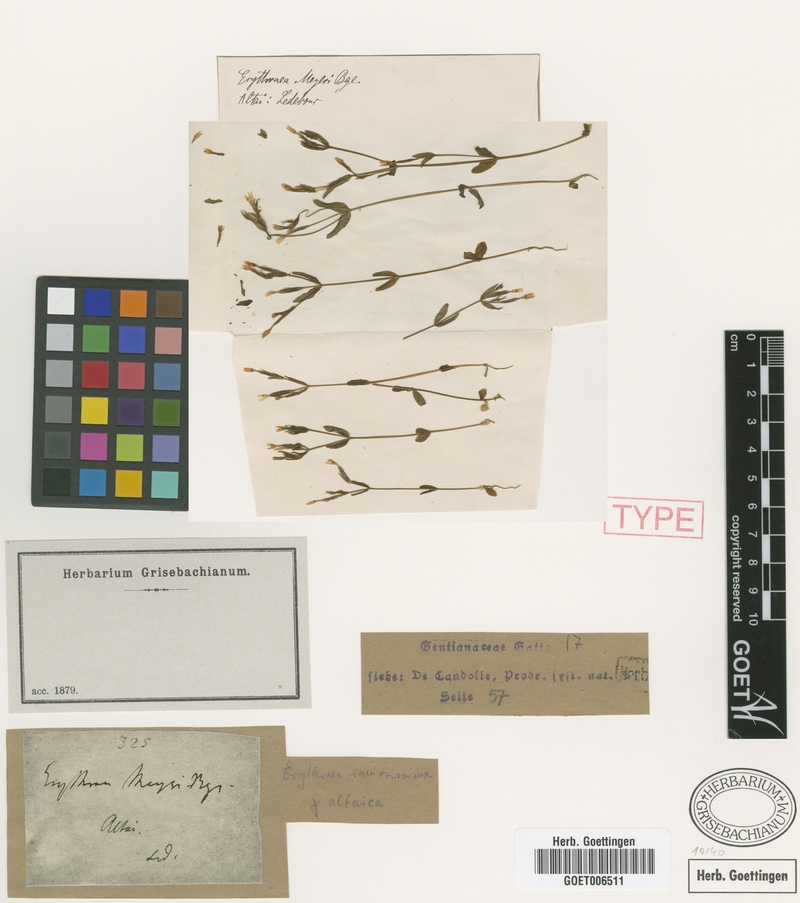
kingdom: Plantae
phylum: Tracheophyta
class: Magnoliopsida
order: Gentianales
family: Gentianaceae
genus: Centaurium
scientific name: Centaurium pulchellum
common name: Lesser centaury
